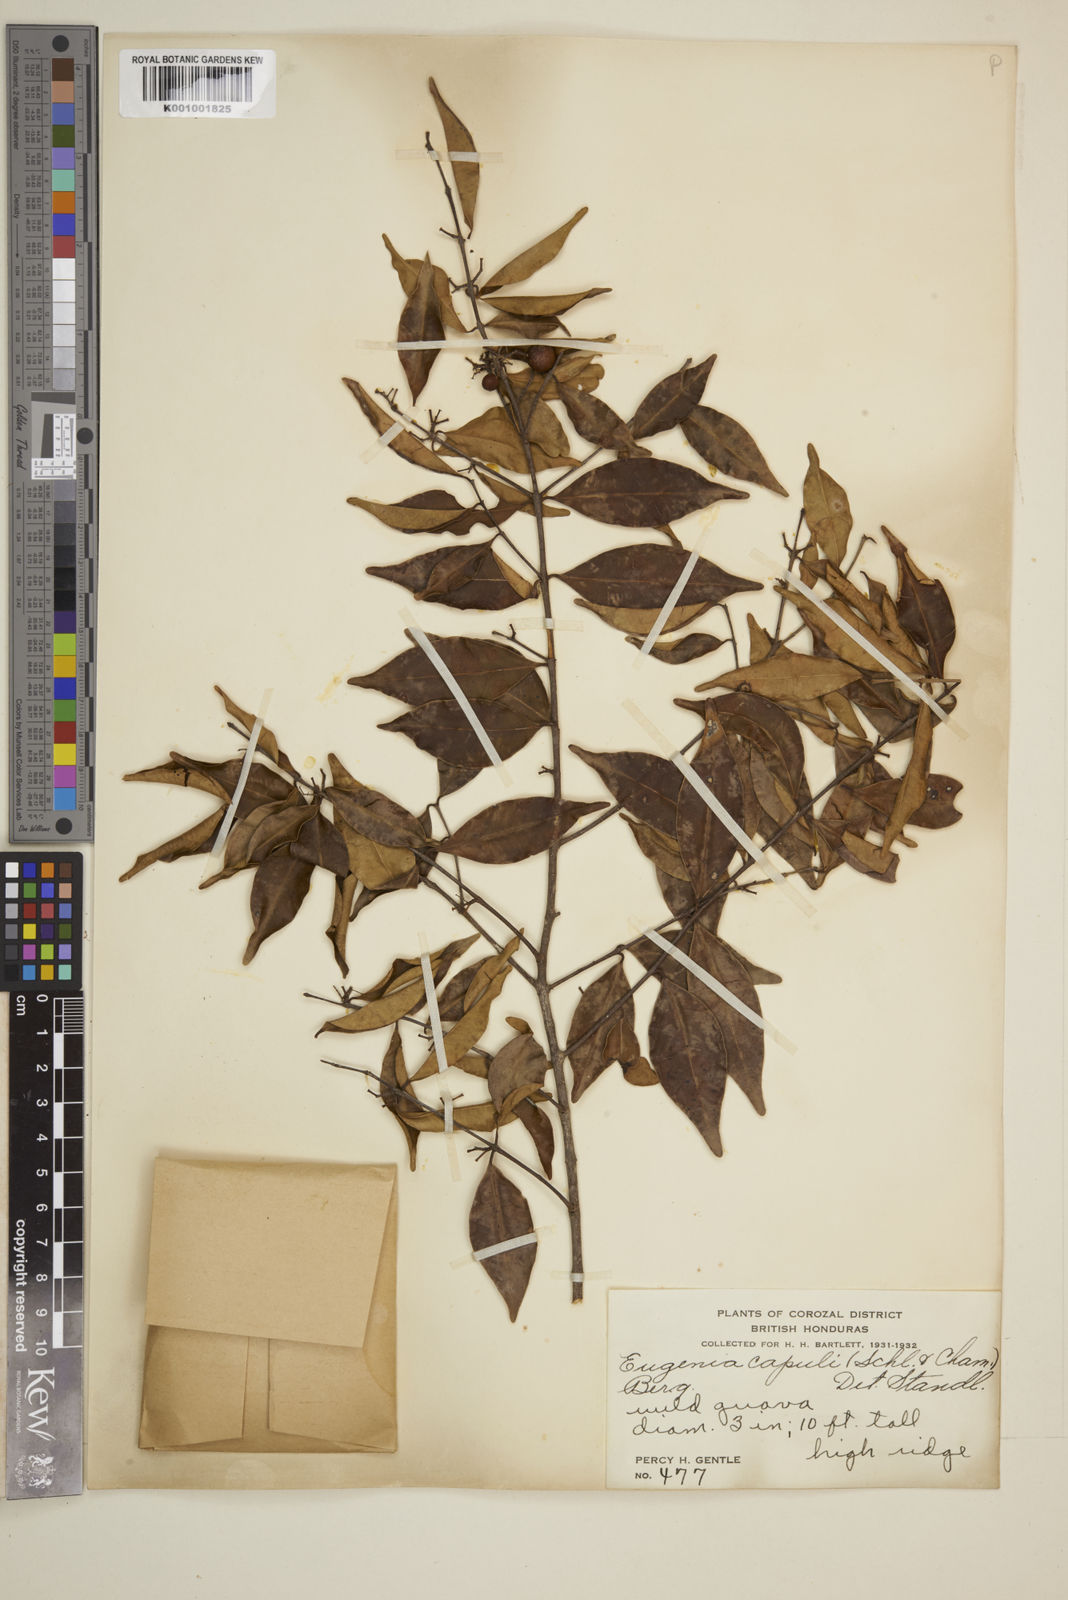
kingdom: Plantae
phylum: Tracheophyta
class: Magnoliopsida
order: Myrtales
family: Myrtaceae
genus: Eugenia
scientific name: Eugenia capuli
